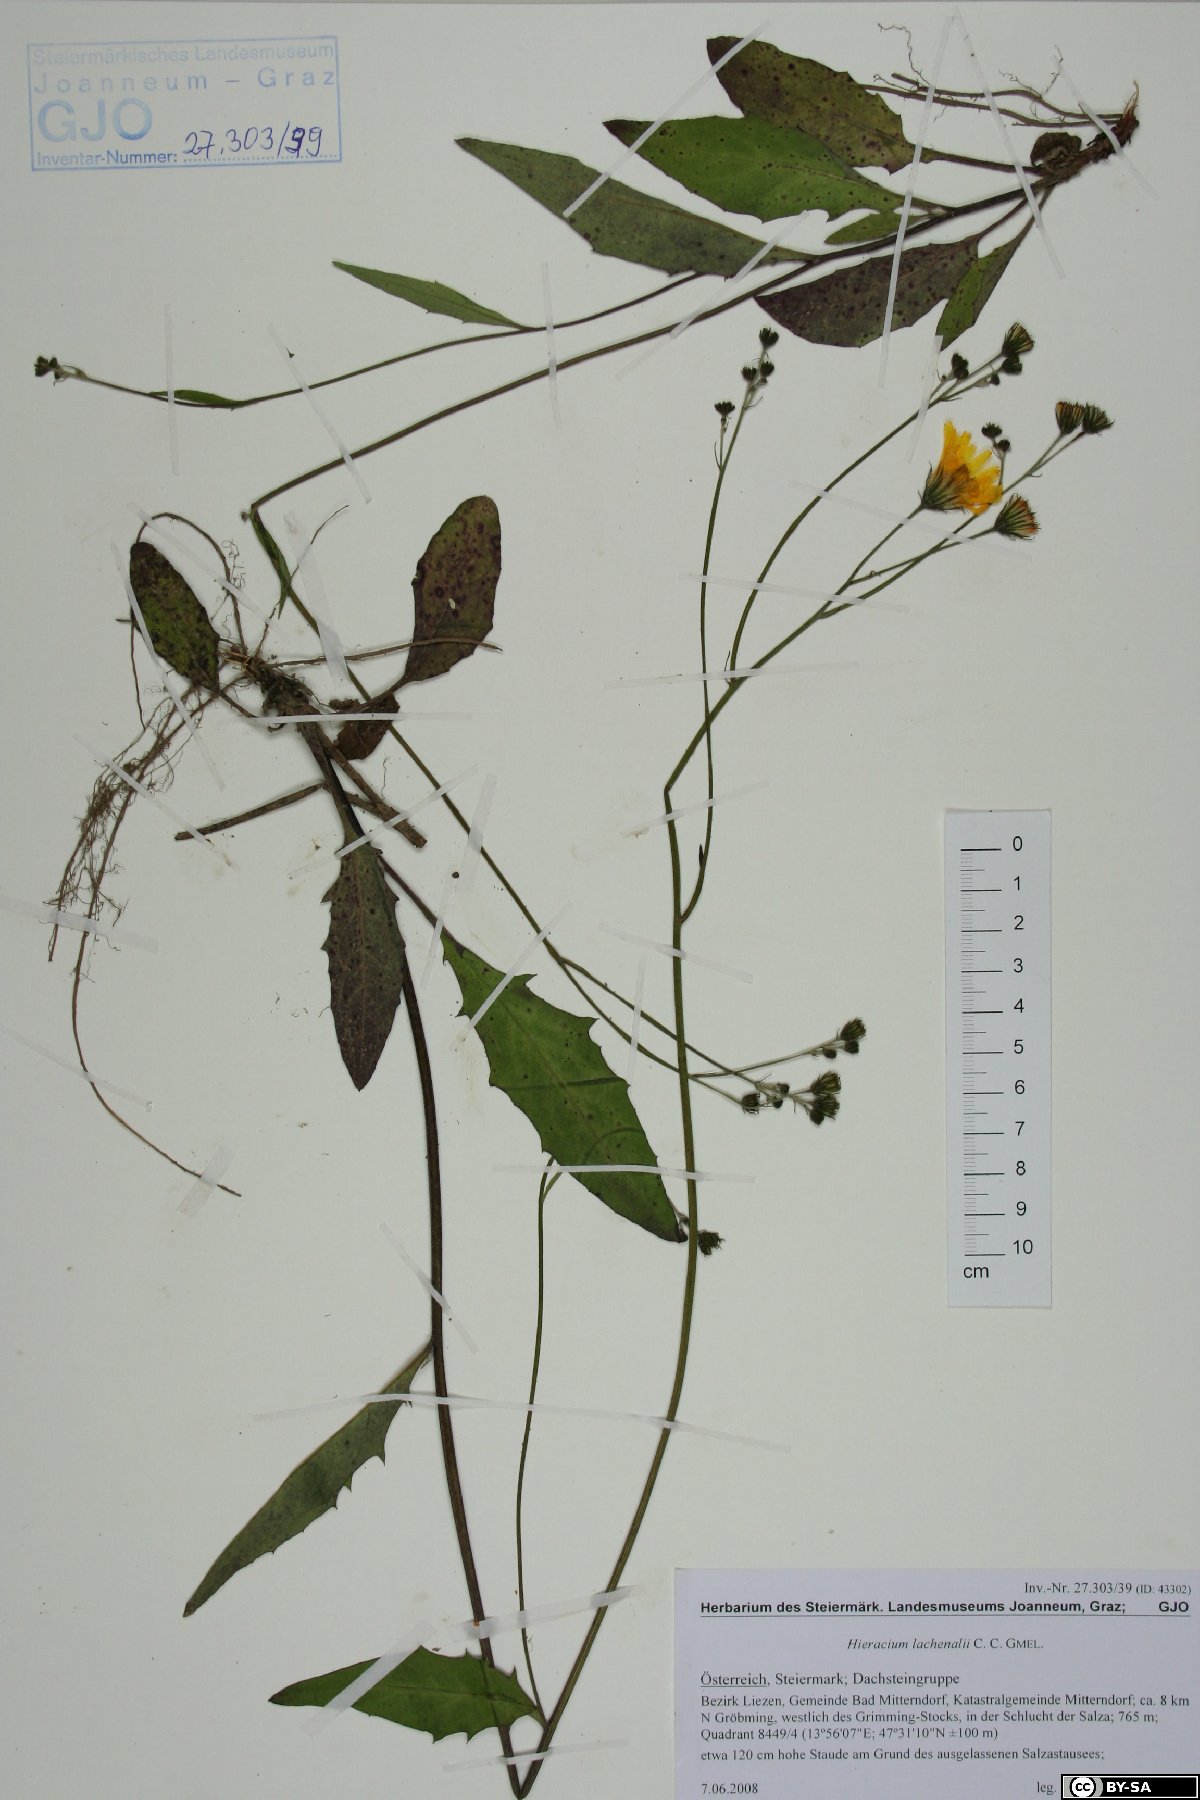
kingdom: Plantae
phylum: Tracheophyta
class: Magnoliopsida
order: Asterales
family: Asteraceae
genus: Hieracium
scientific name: Hieracium lachenalii
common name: Common hawkweed
